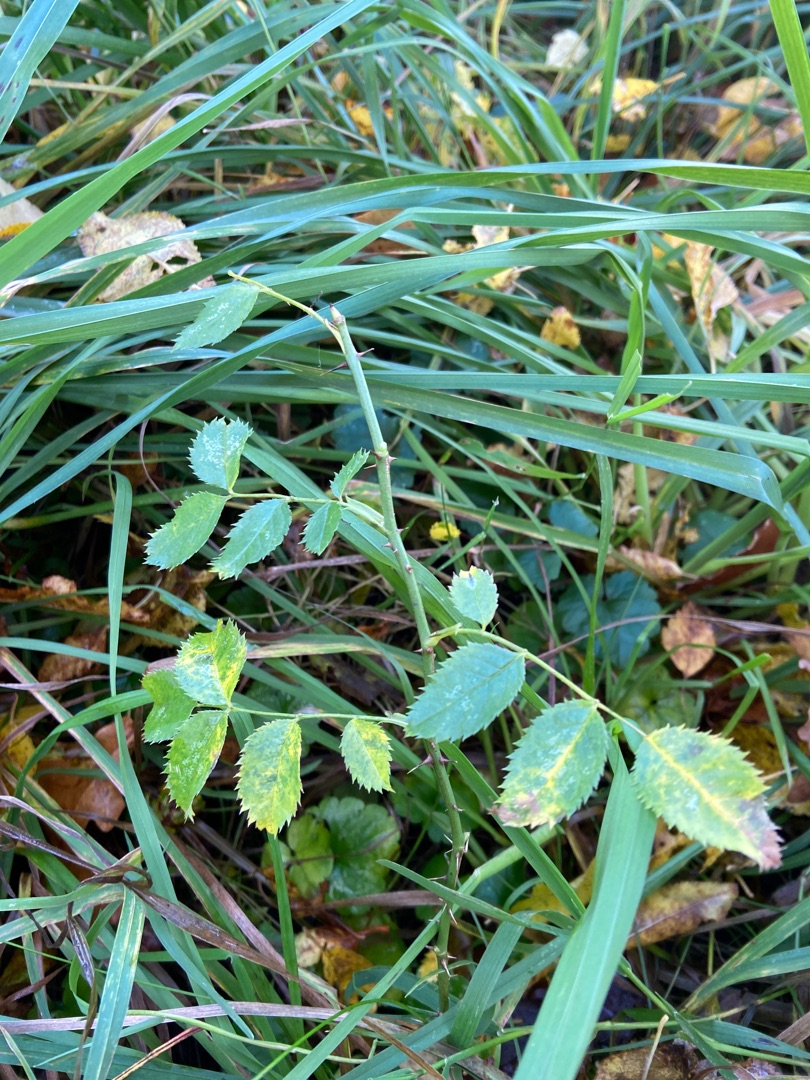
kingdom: Plantae
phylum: Tracheophyta
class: Magnoliopsida
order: Rosales
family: Rosaceae
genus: Rosa
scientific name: Rosa
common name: Roseslægten
